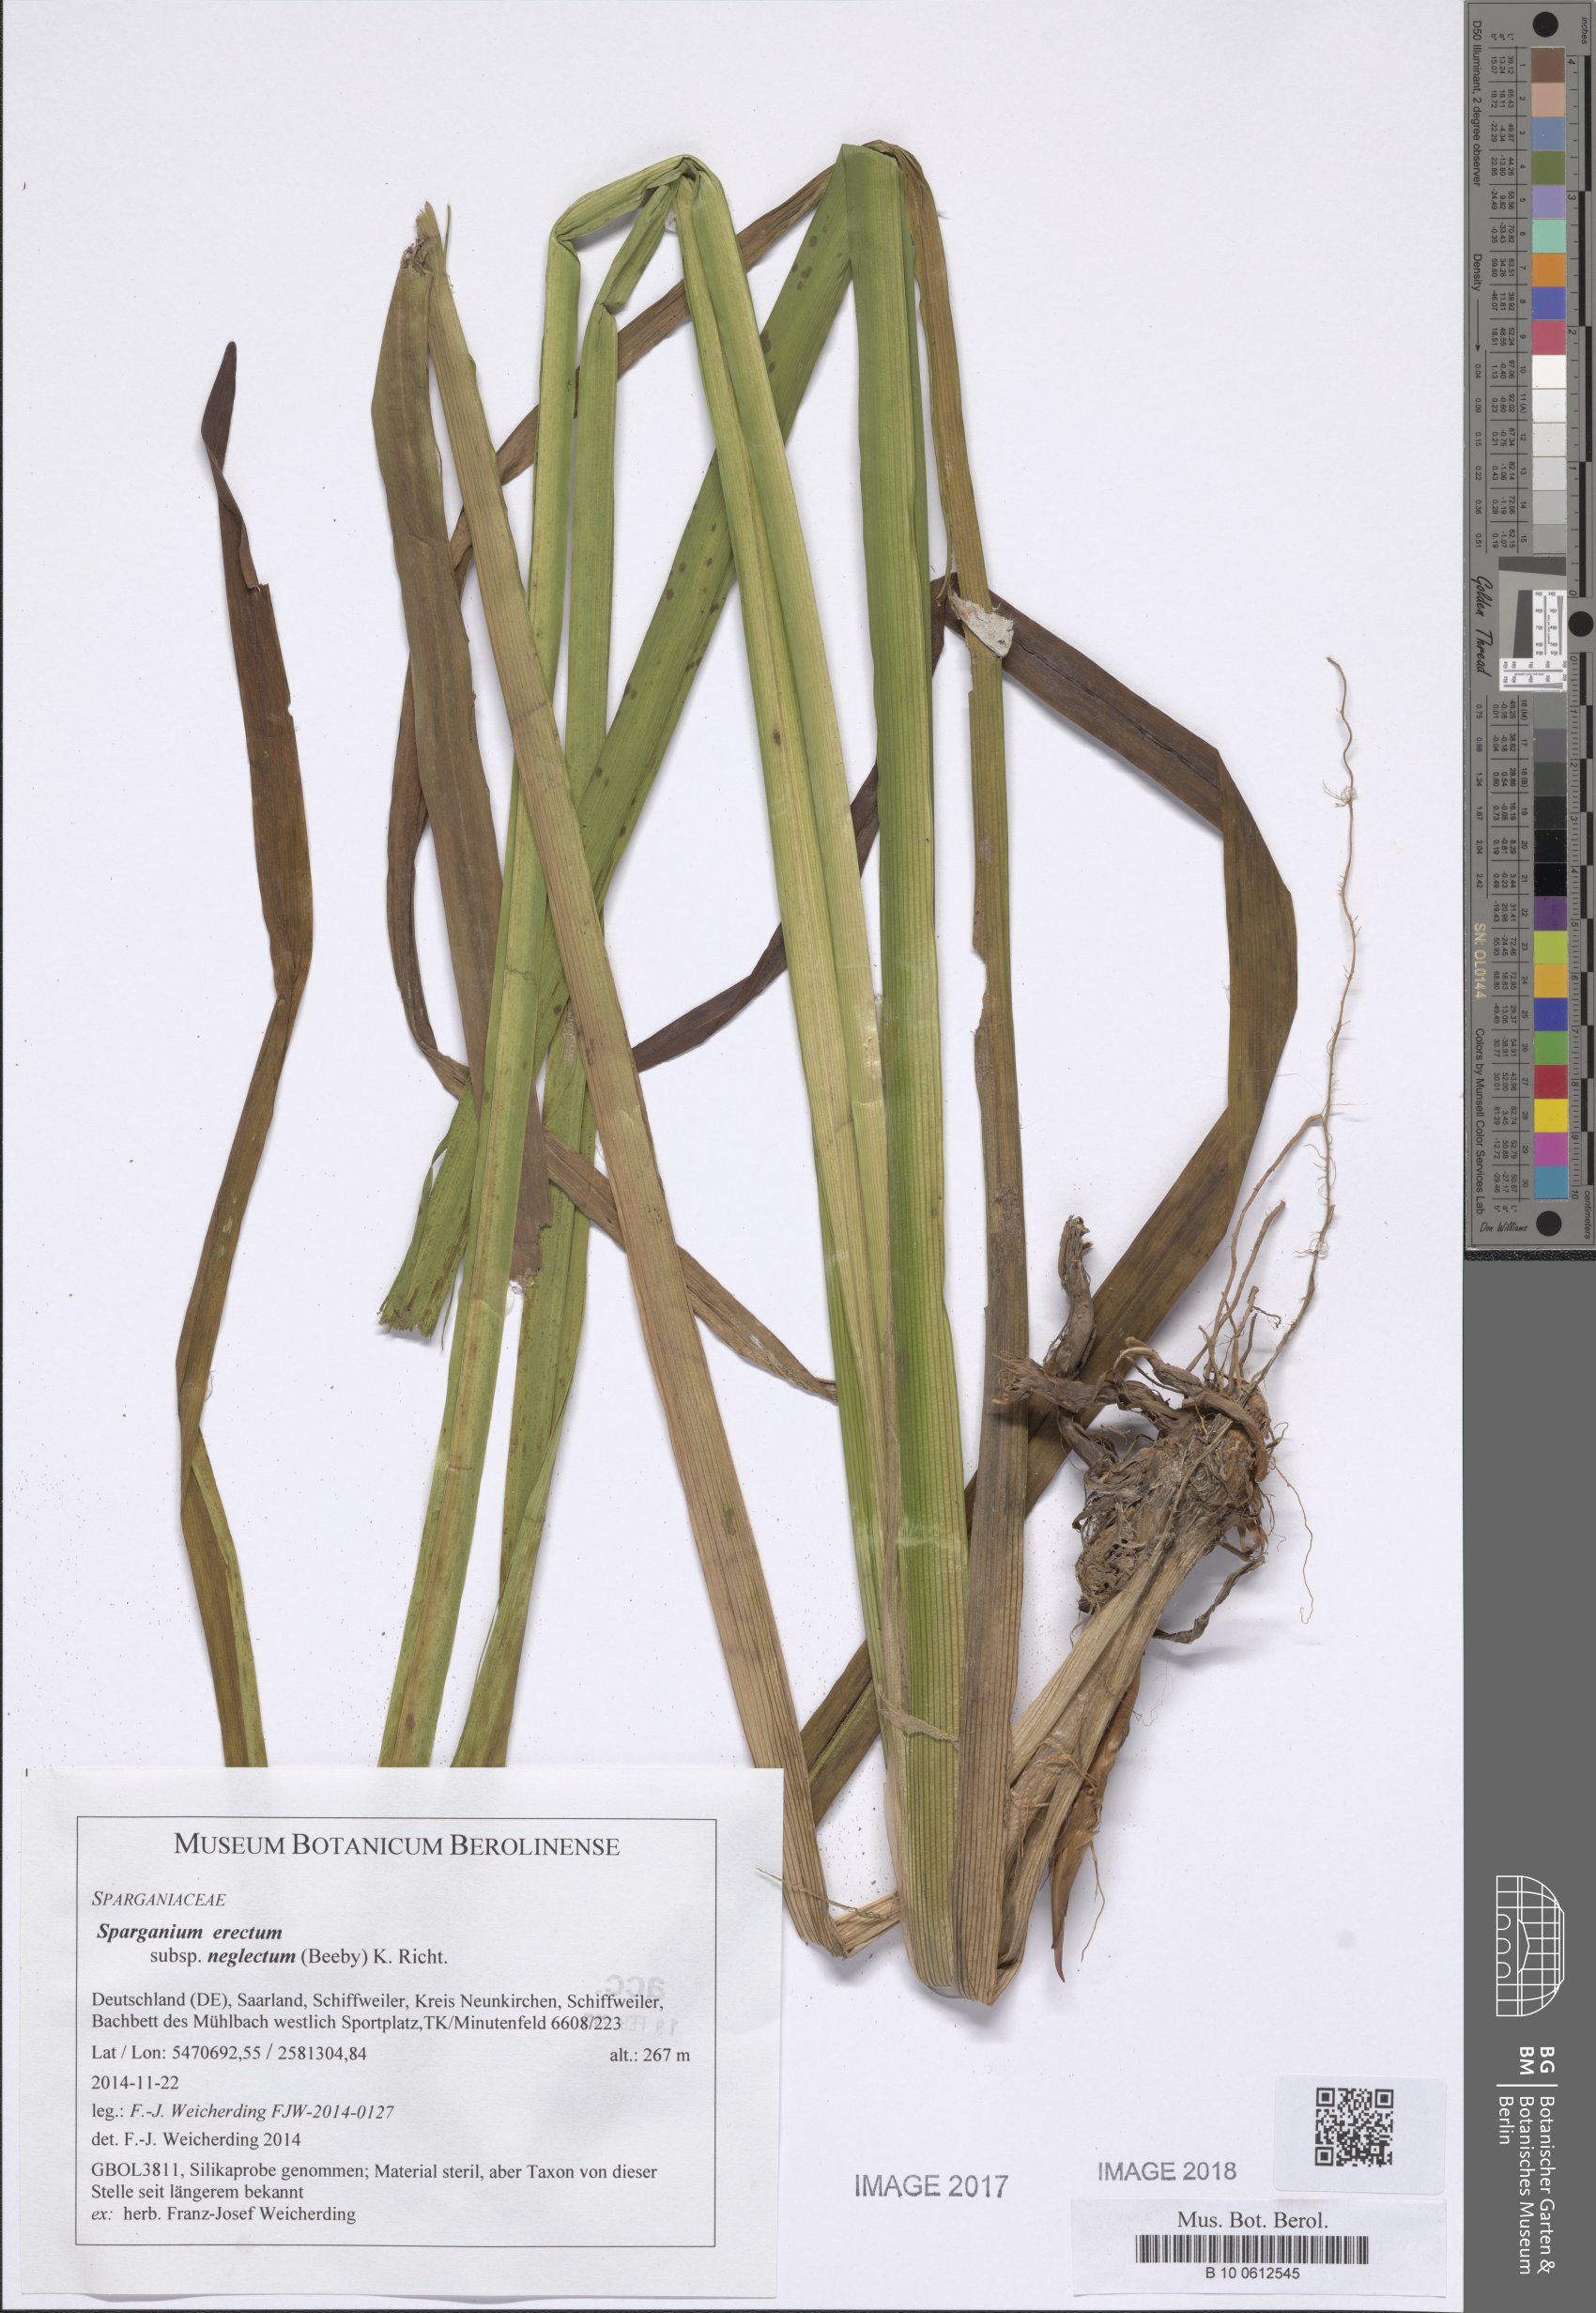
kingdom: Plantae
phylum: Tracheophyta
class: Liliopsida
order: Poales
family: Typhaceae
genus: Sparganium
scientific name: Sparganium erectum
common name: Branched bur-reed
